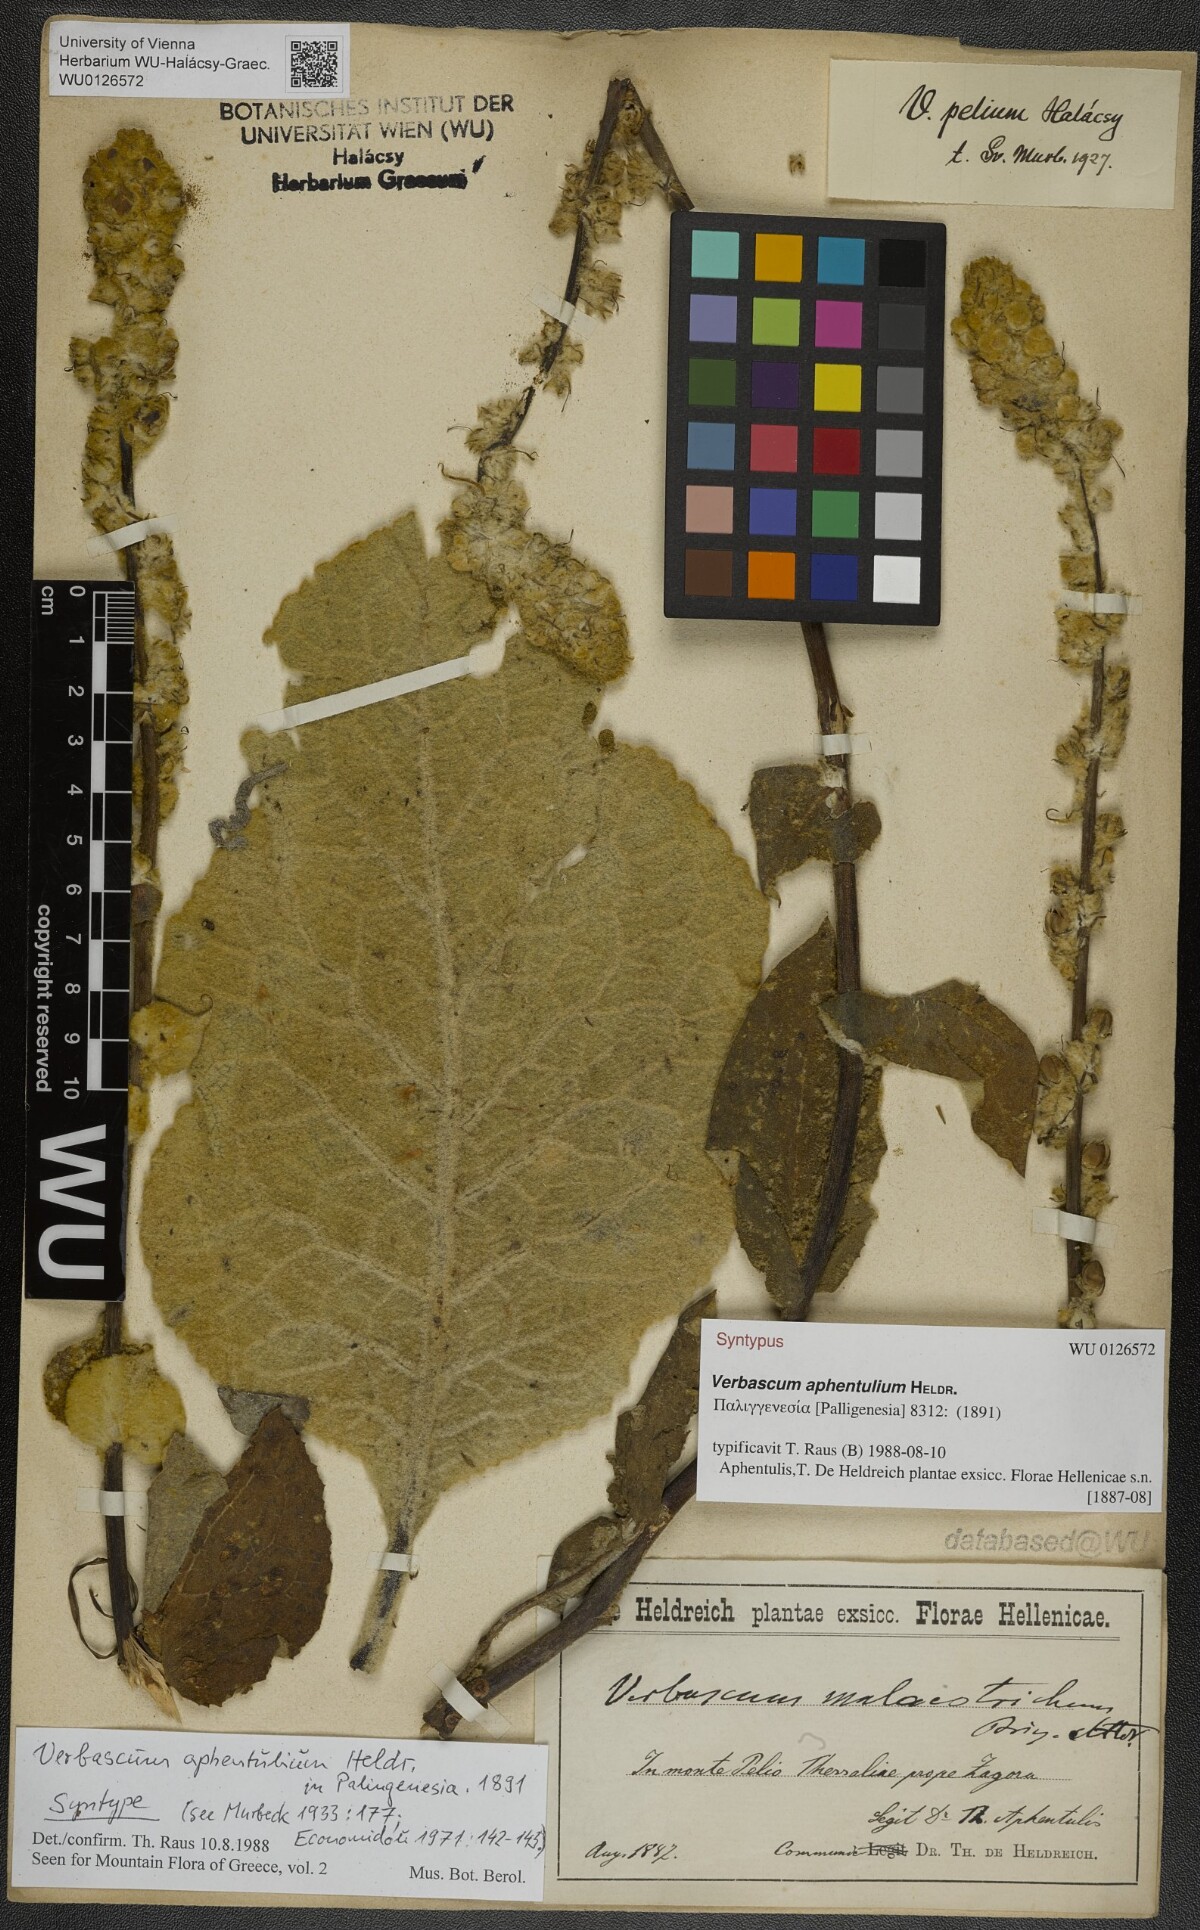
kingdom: Plantae
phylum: Tracheophyta
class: Magnoliopsida
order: Lamiales
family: Scrophulariaceae
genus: Verbascum
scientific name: Verbascum aphentulium
